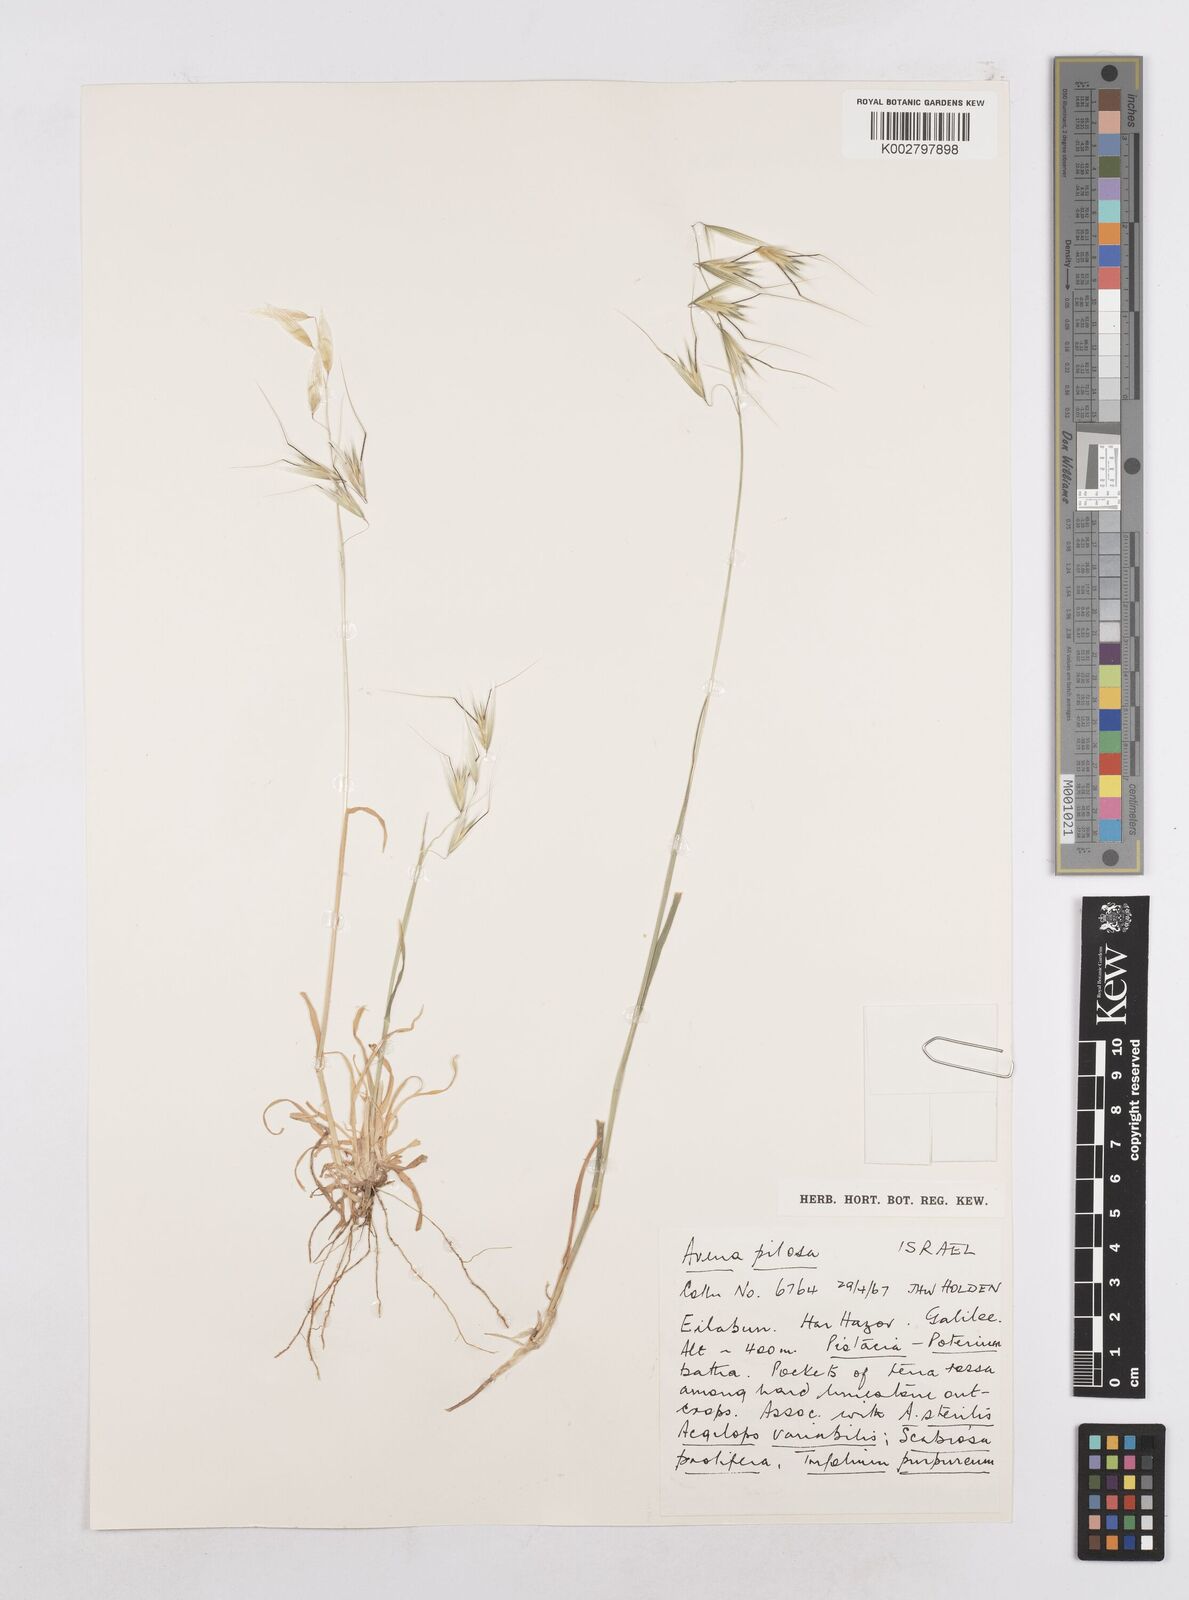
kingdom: Plantae
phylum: Tracheophyta
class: Liliopsida
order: Poales
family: Poaceae
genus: Avena
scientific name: Avena
